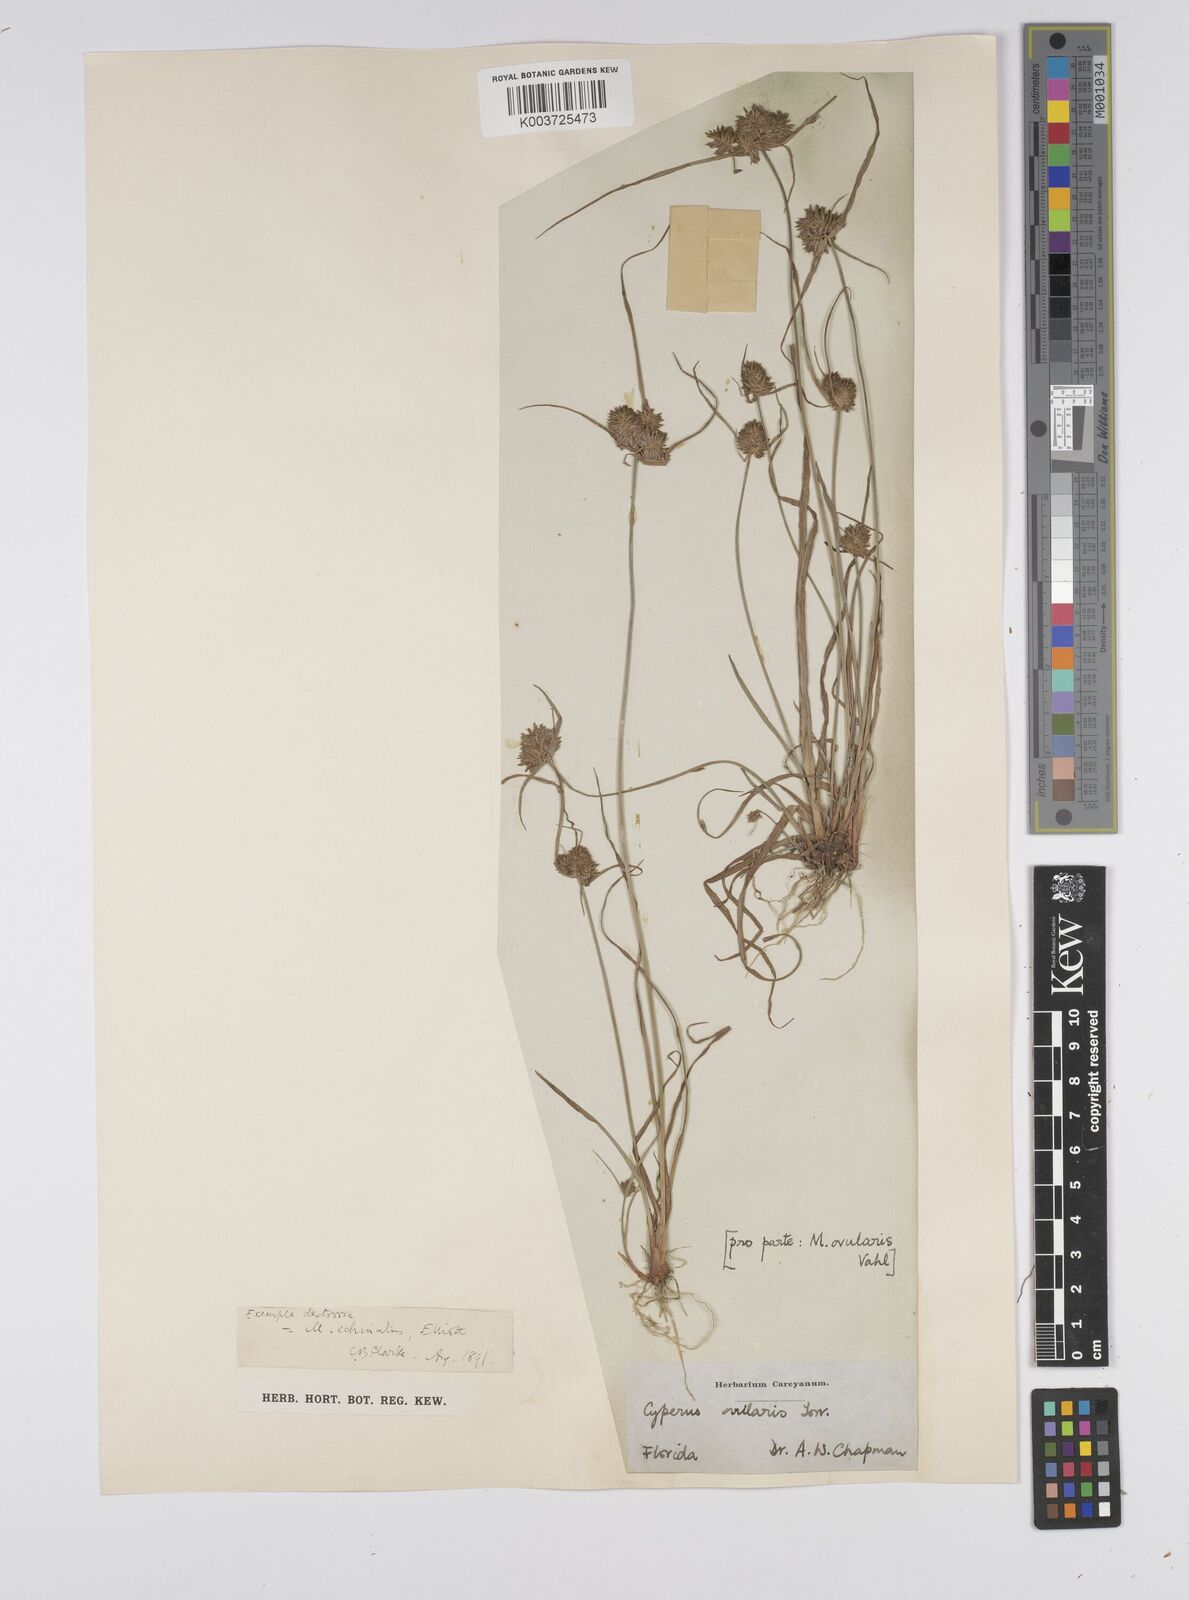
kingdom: Plantae
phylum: Tracheophyta
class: Liliopsida
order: Poales
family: Cyperaceae
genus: Cyperus
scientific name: Cyperus luzulae
